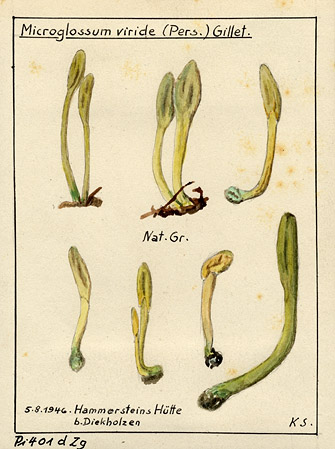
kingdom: Fungi
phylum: Ascomycota
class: Leotiomycetes
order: Leotiales
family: Leotiaceae
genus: Microglossum
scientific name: Microglossum viride
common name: Green earthtongue
